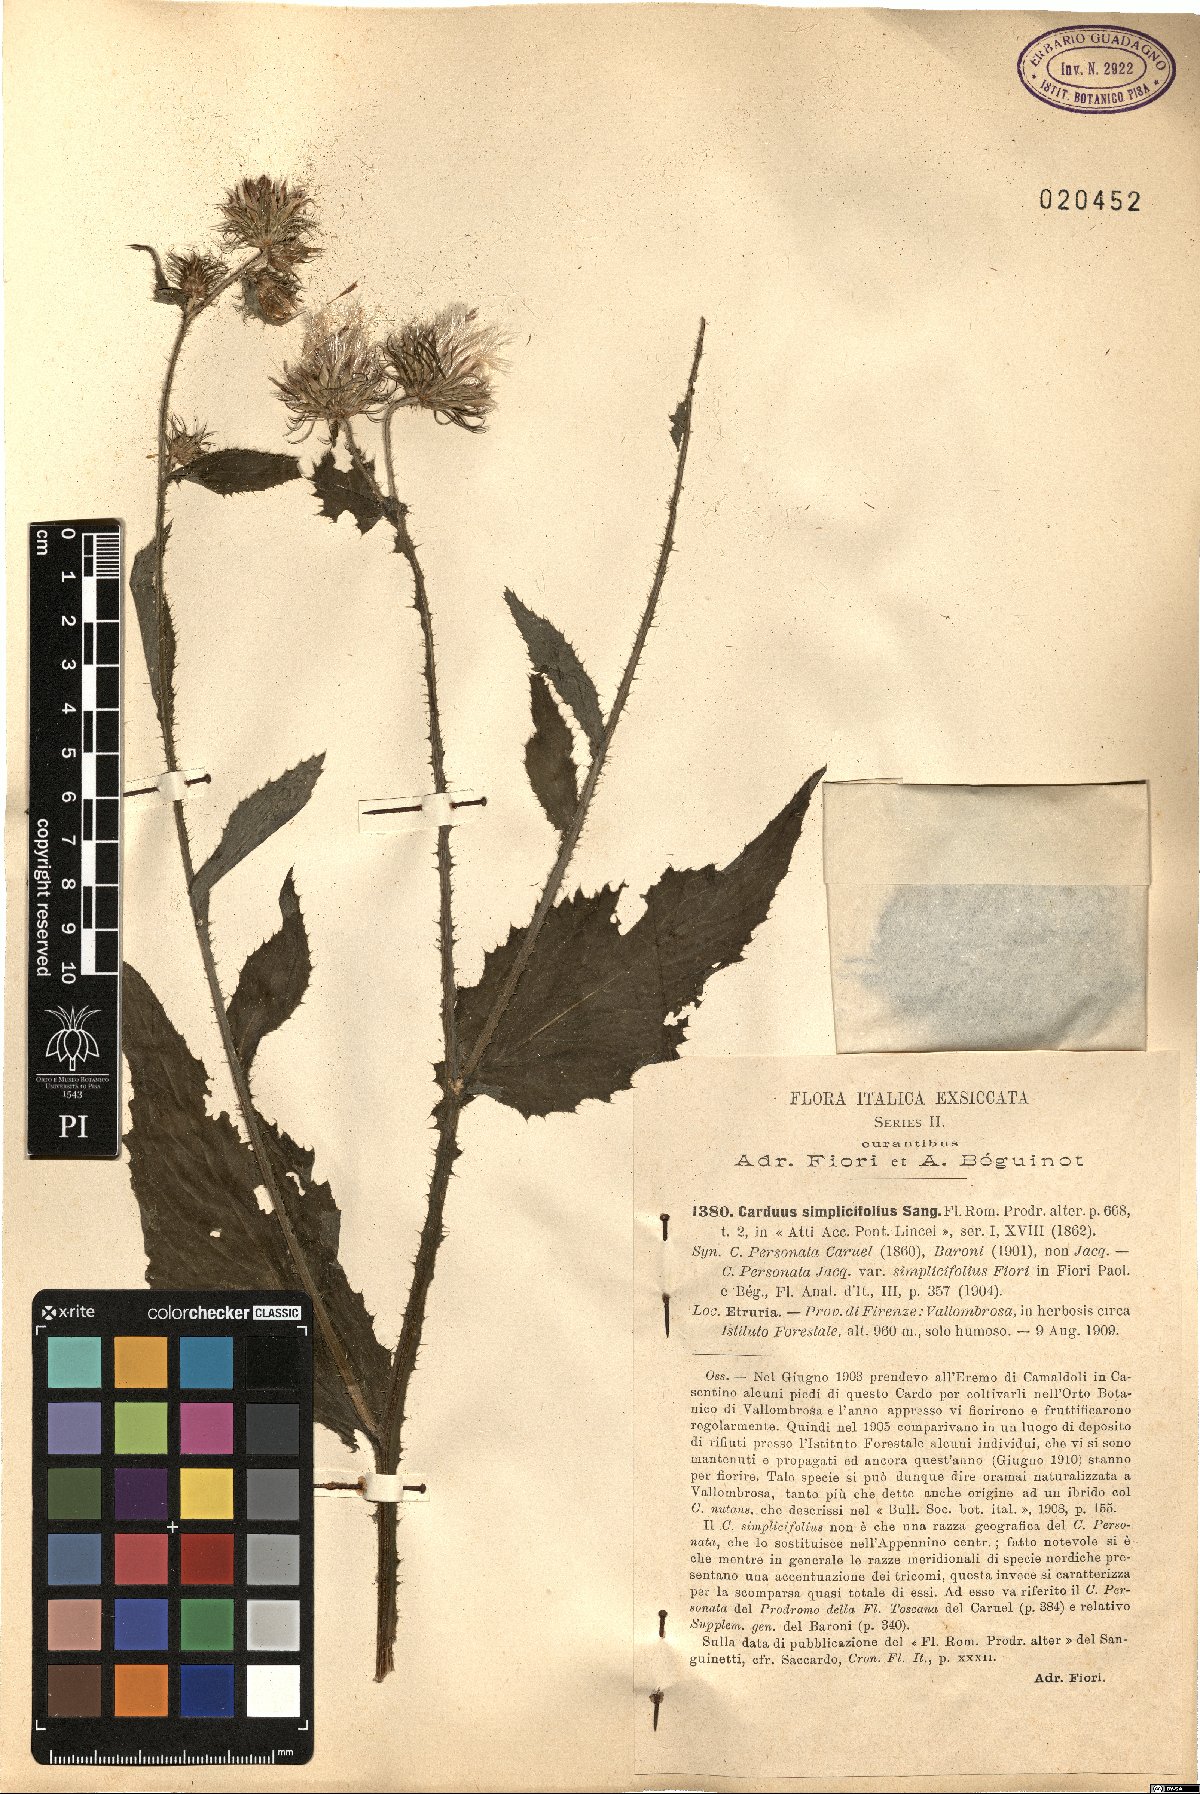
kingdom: Plantae
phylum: Tracheophyta
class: Magnoliopsida
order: Asterales
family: Asteraceae
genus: Carduus
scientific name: Carduus personata
